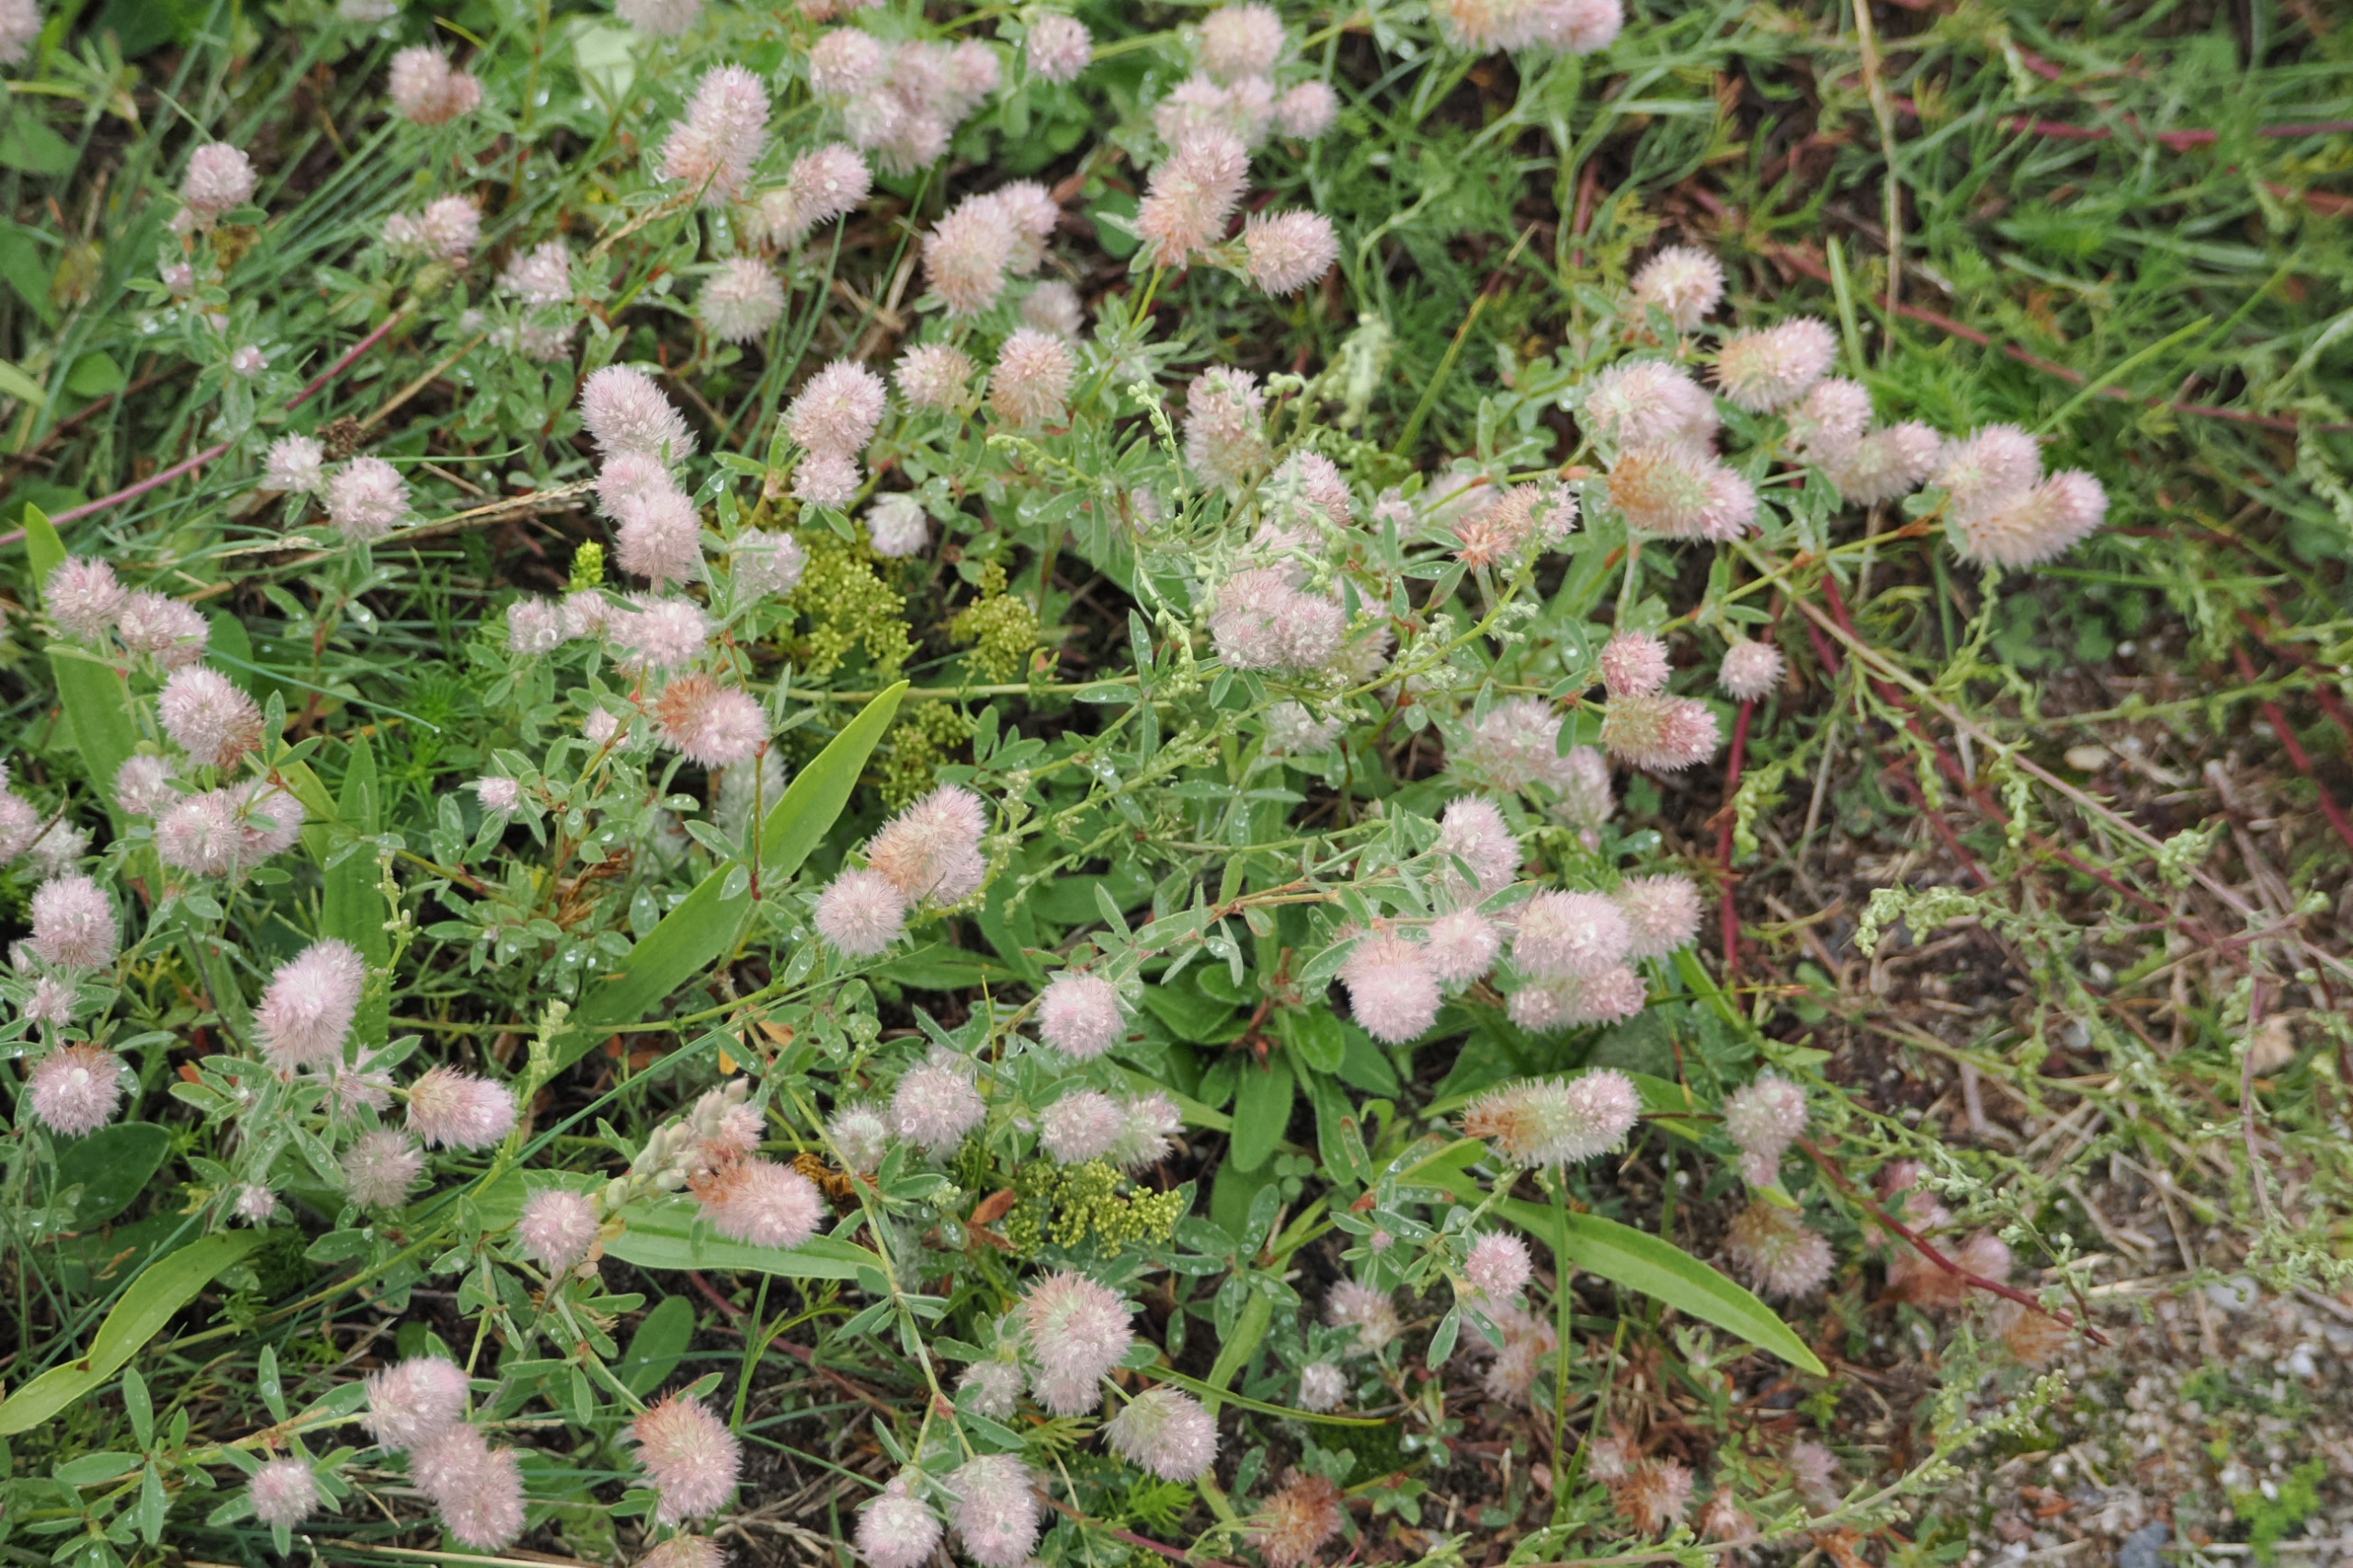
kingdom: Plantae
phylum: Tracheophyta
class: Magnoliopsida
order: Fabales
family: Fabaceae
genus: Trifolium
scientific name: Trifolium arvense
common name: Hare-kløver
